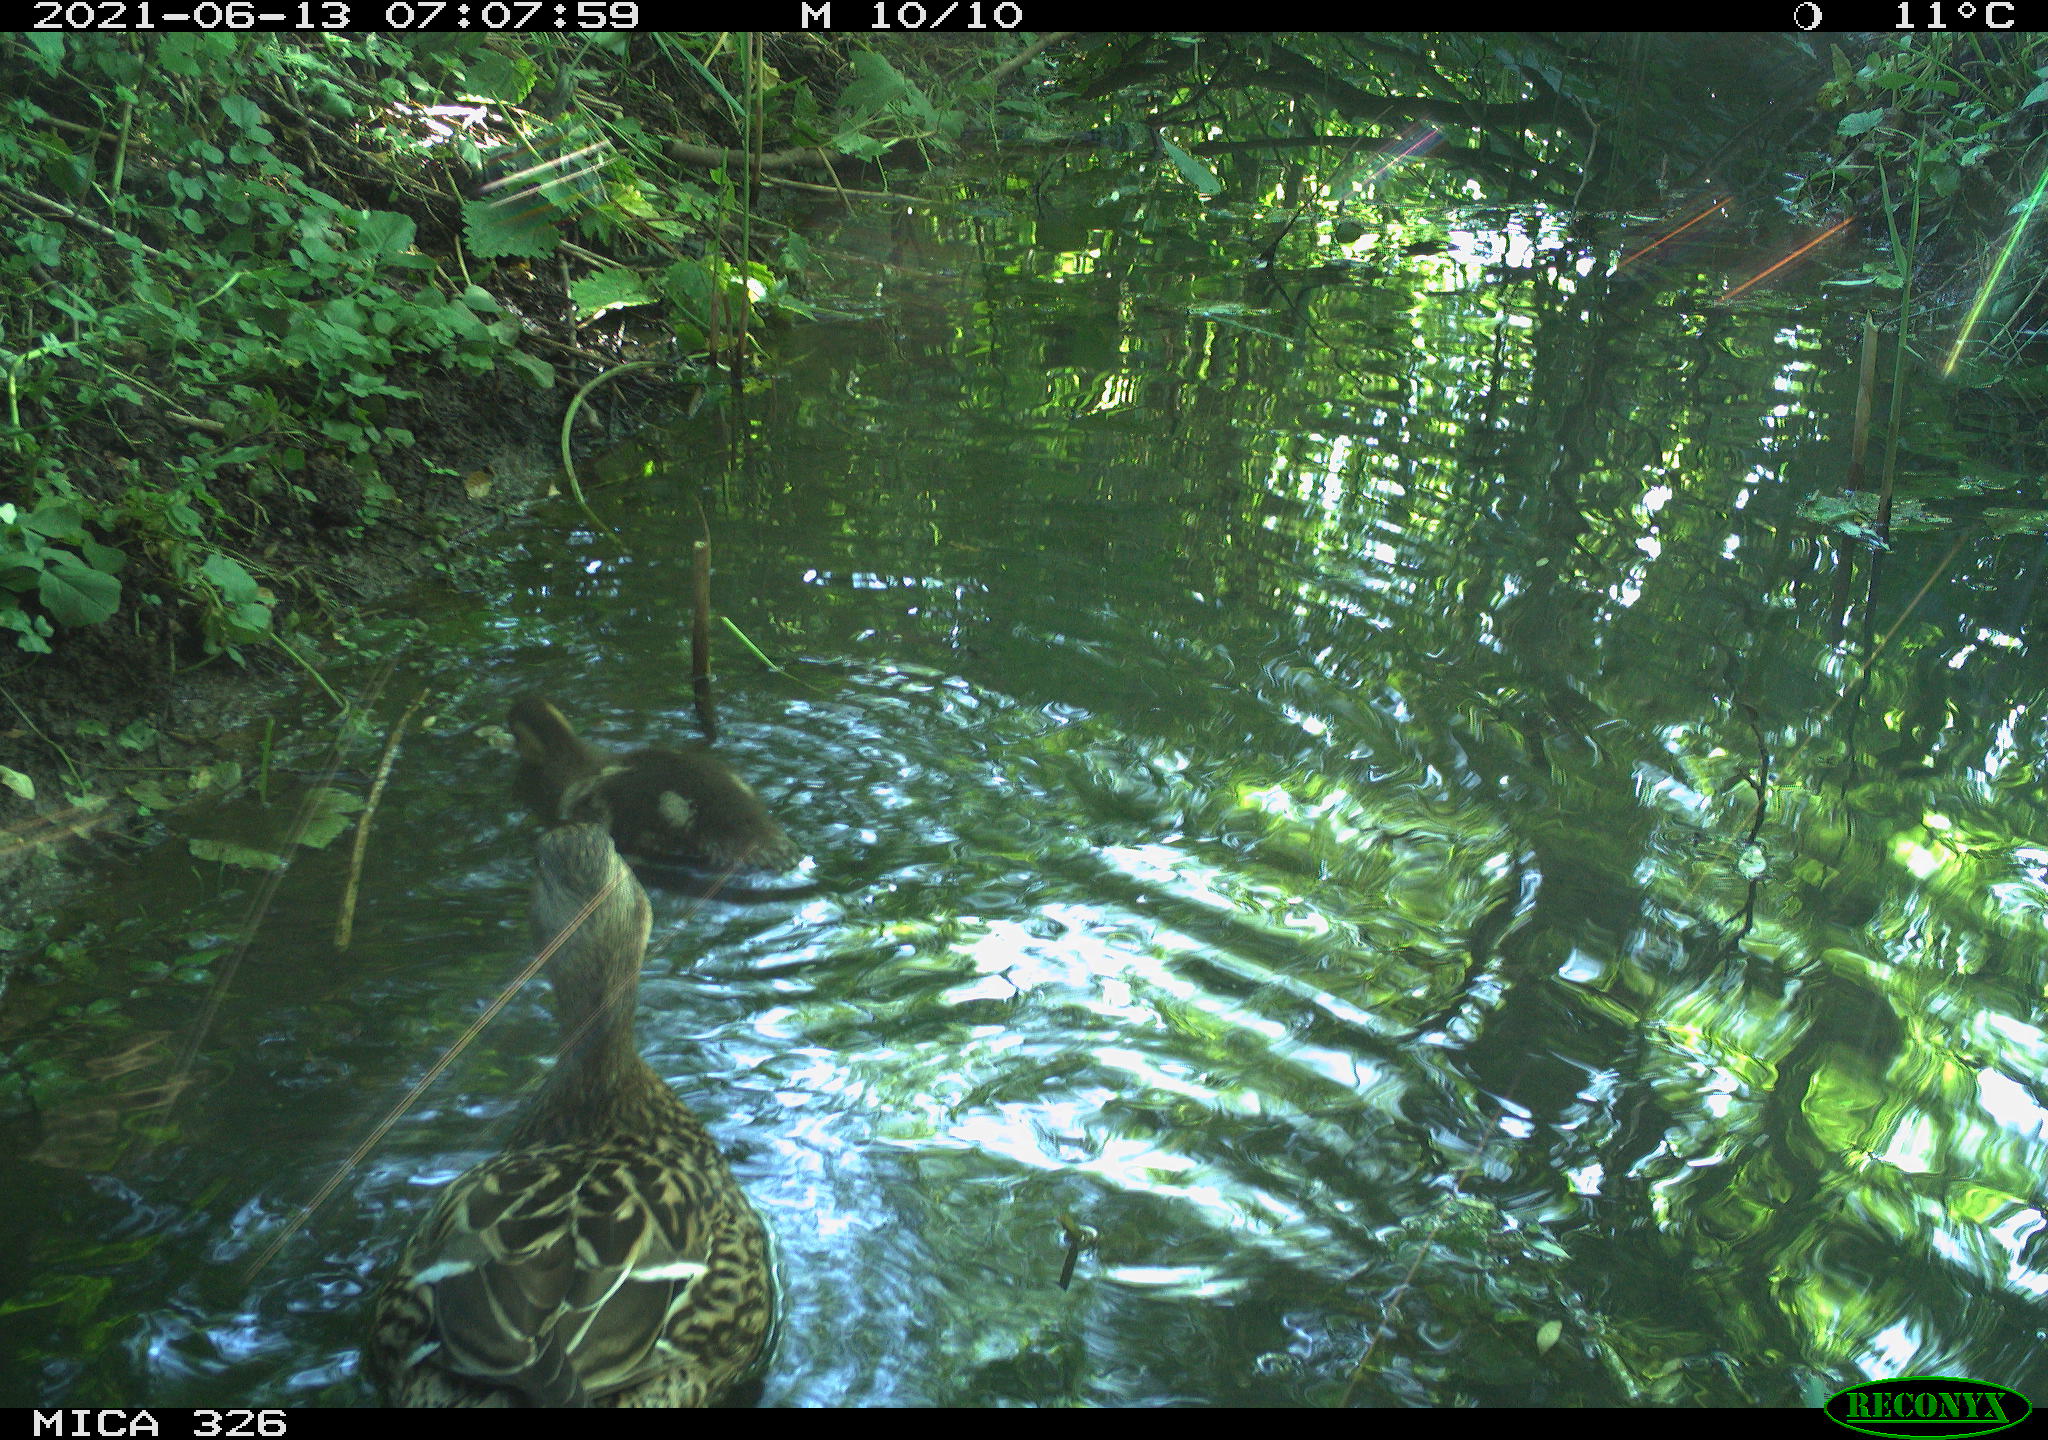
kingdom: Animalia
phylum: Chordata
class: Aves
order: Anseriformes
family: Anatidae
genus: Anas
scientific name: Anas platyrhynchos
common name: Mallard
